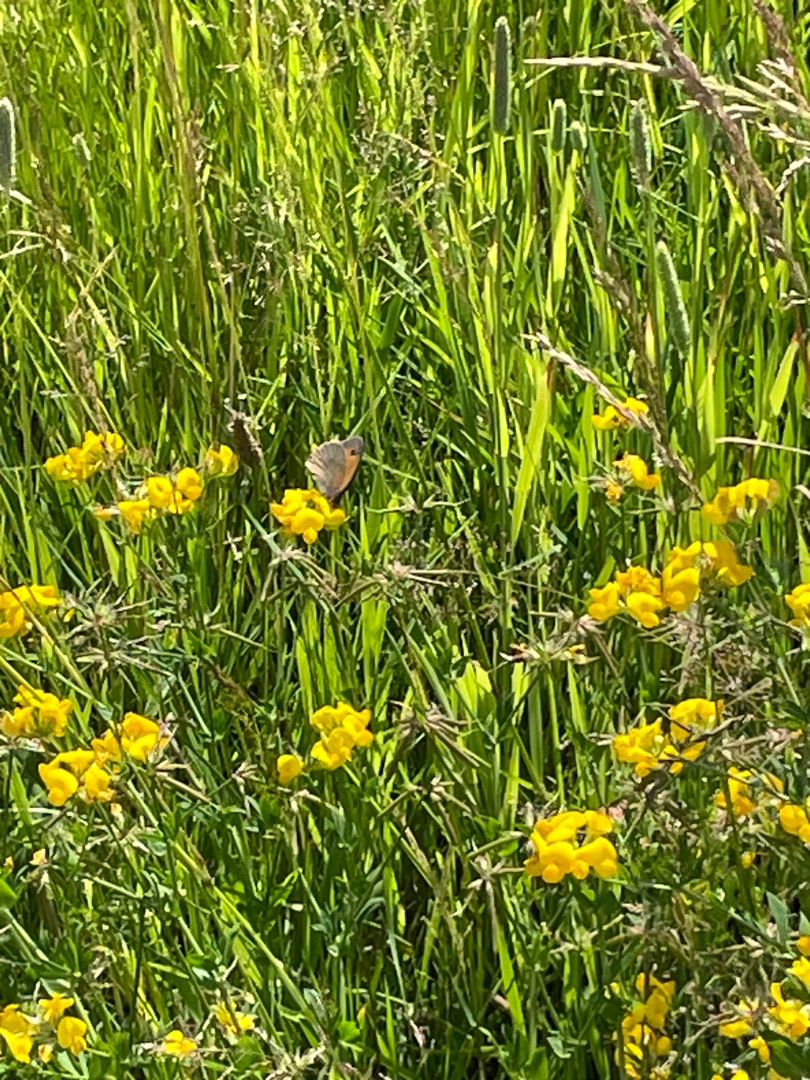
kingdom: Animalia
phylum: Arthropoda
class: Insecta
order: Lepidoptera
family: Nymphalidae
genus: Maniola
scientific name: Maniola jurtina
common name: Græsrandøje
